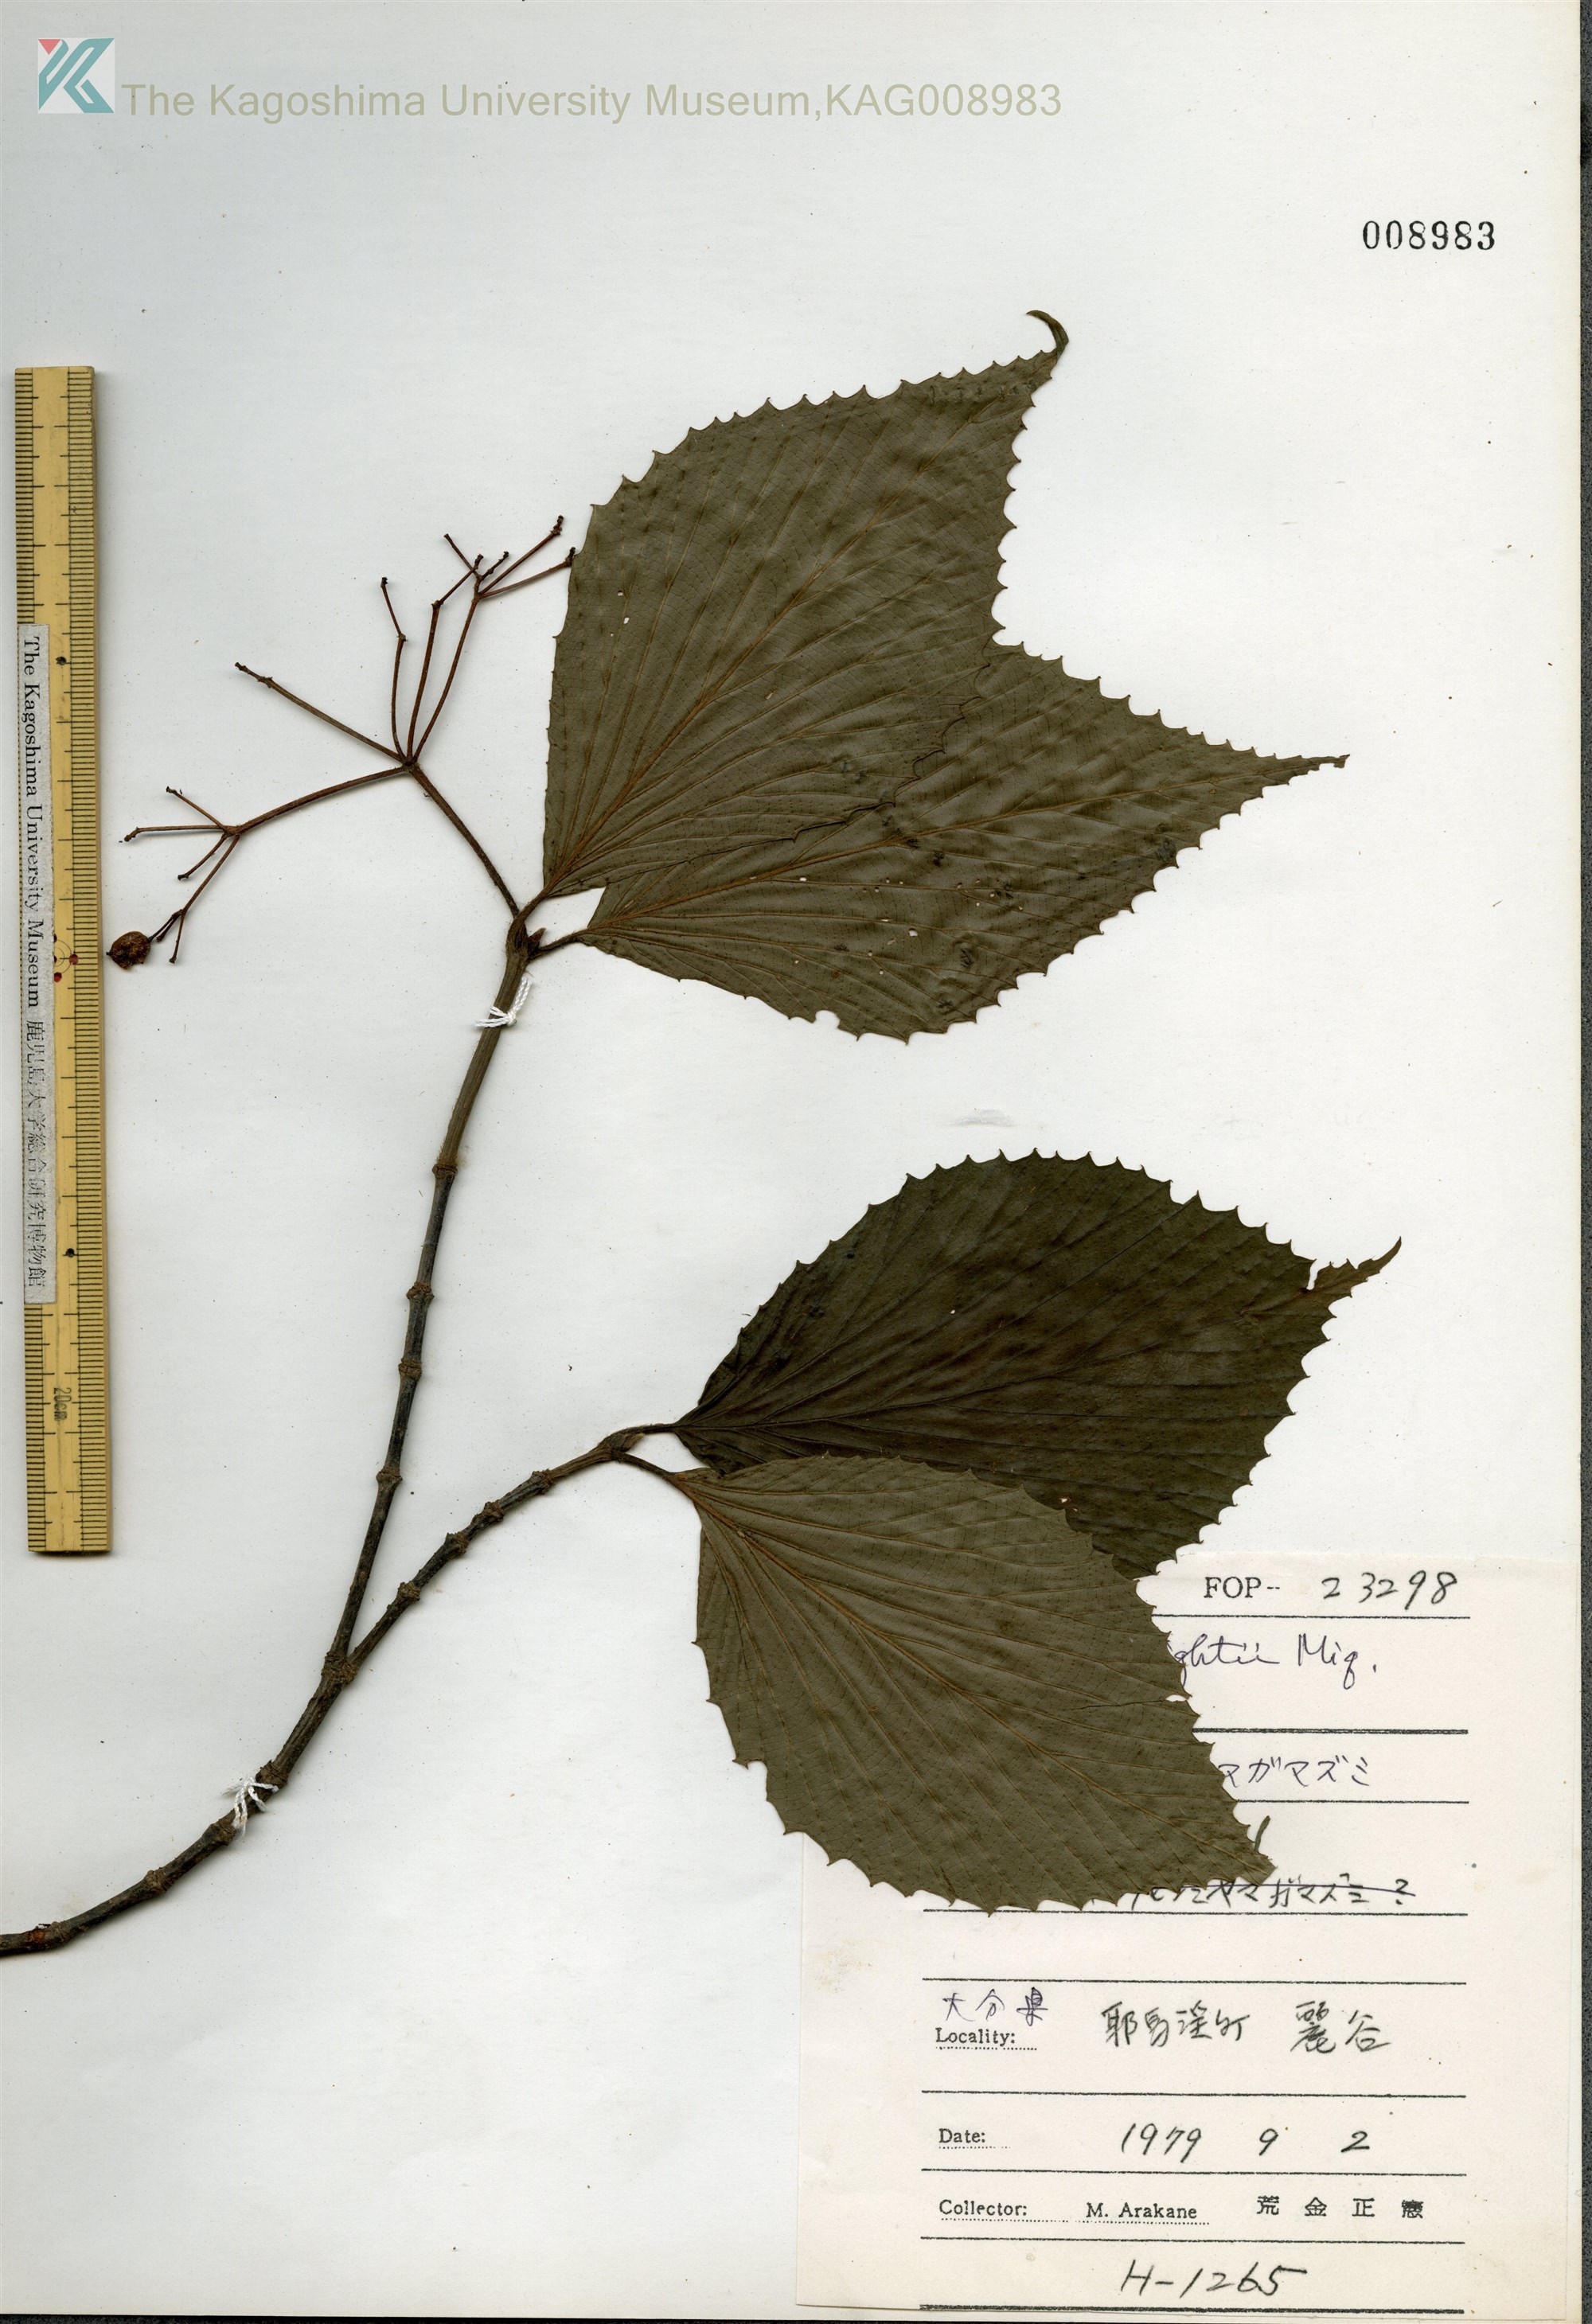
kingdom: Plantae
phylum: Tracheophyta
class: Magnoliopsida
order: Dipsacales
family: Viburnaceae
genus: Viburnum
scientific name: Viburnum wrightii
